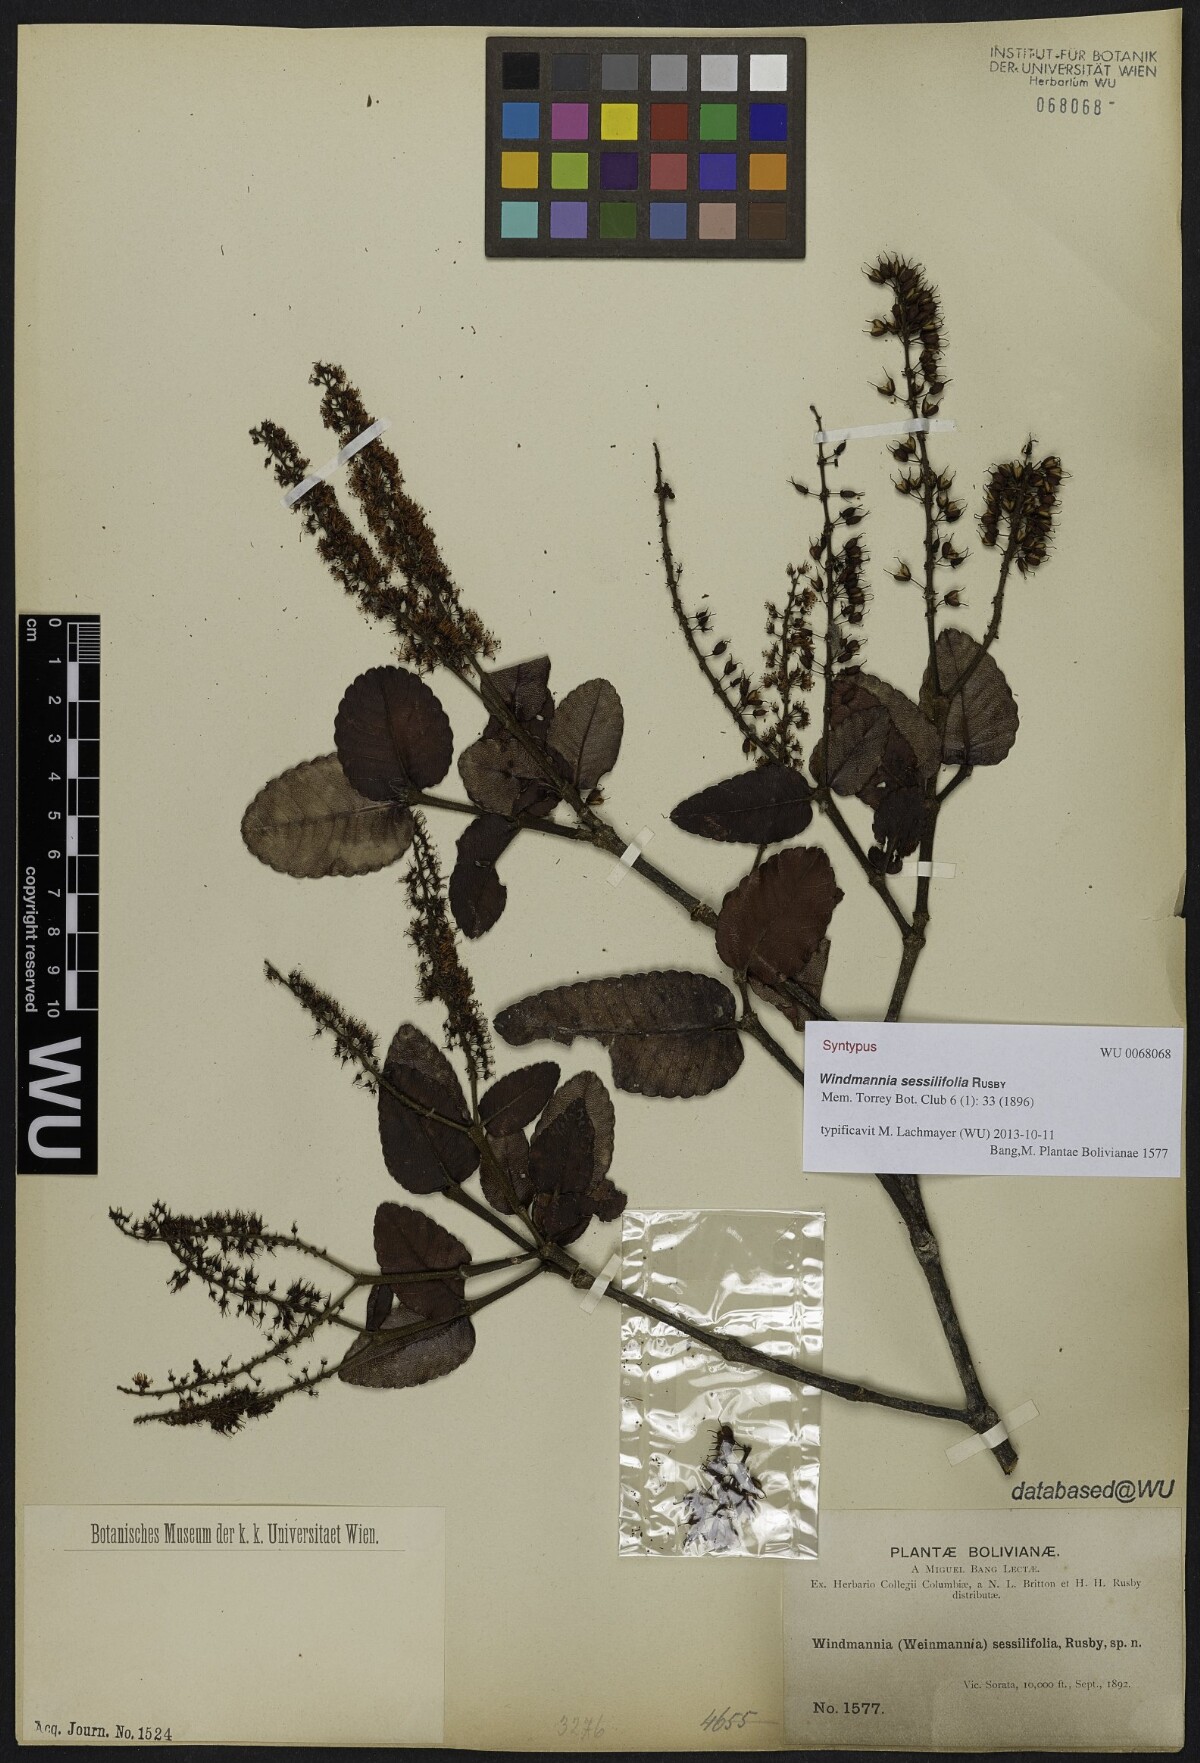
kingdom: Plantae
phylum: Tracheophyta
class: Magnoliopsida
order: Oxalidales
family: Cunoniaceae
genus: Weinmannia
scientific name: Weinmannia crassifolia
